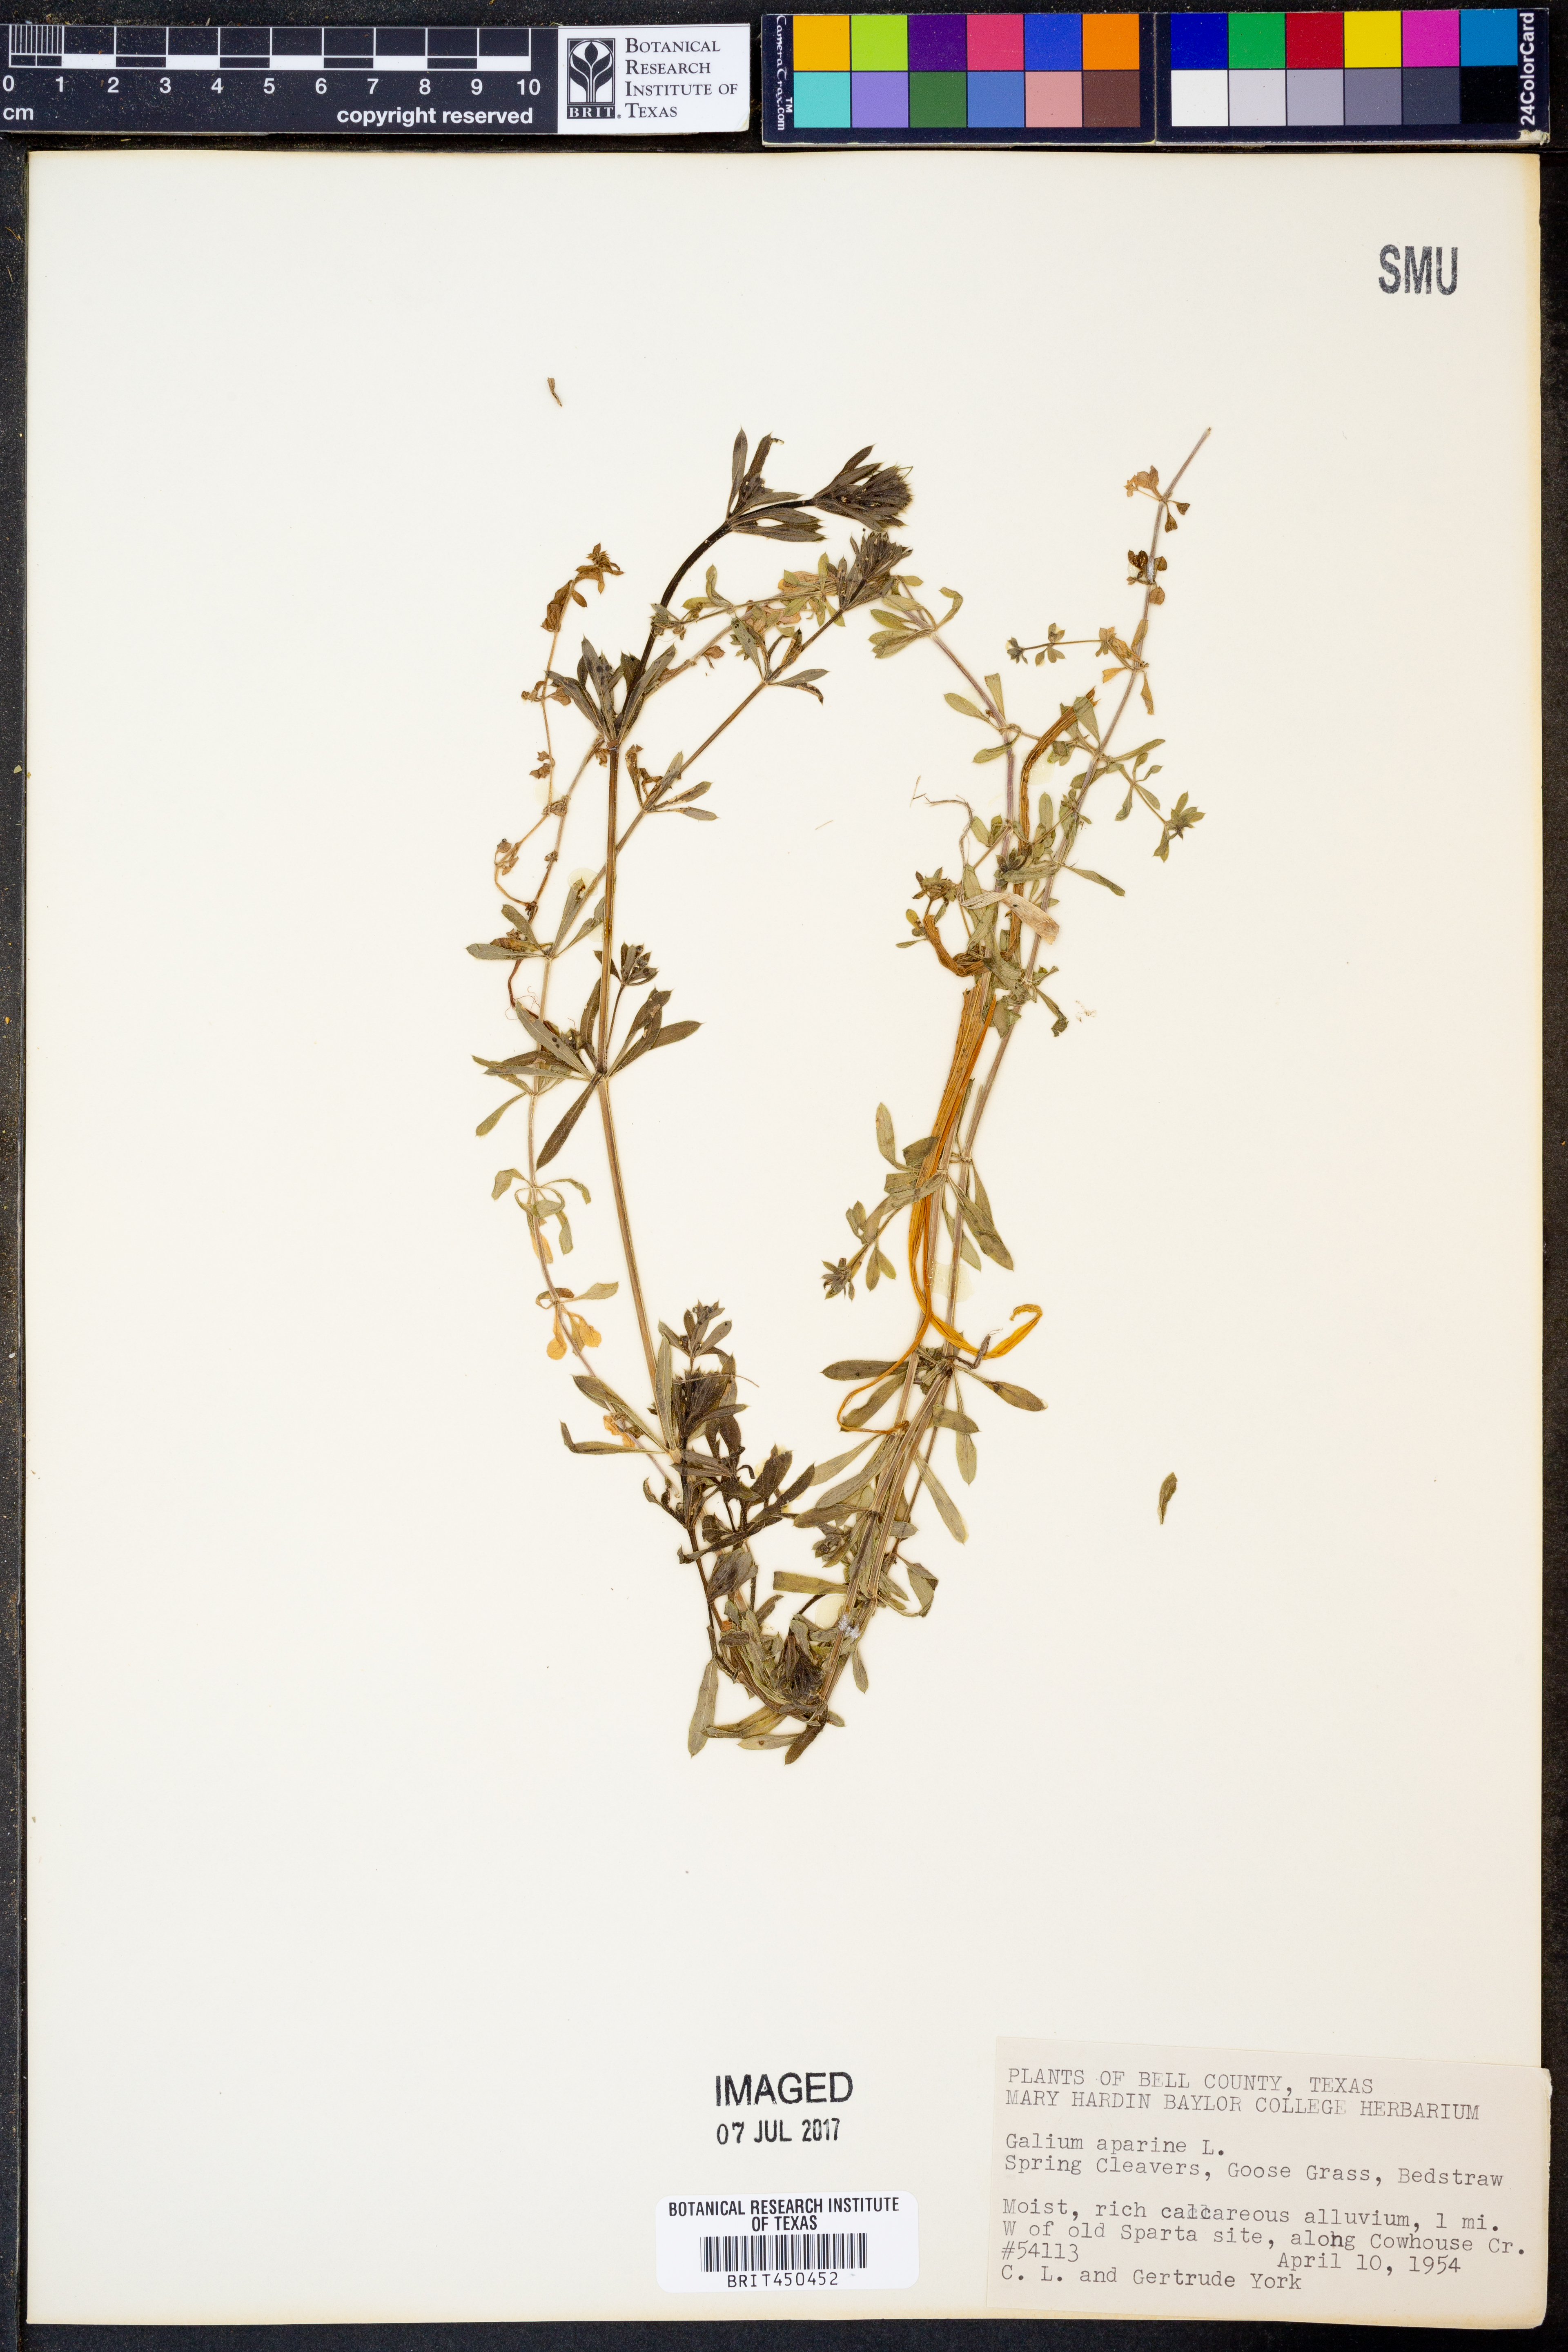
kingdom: Plantae
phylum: Tracheophyta
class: Magnoliopsida
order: Gentianales
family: Rubiaceae
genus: Galium
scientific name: Galium aparine
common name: Cleavers
